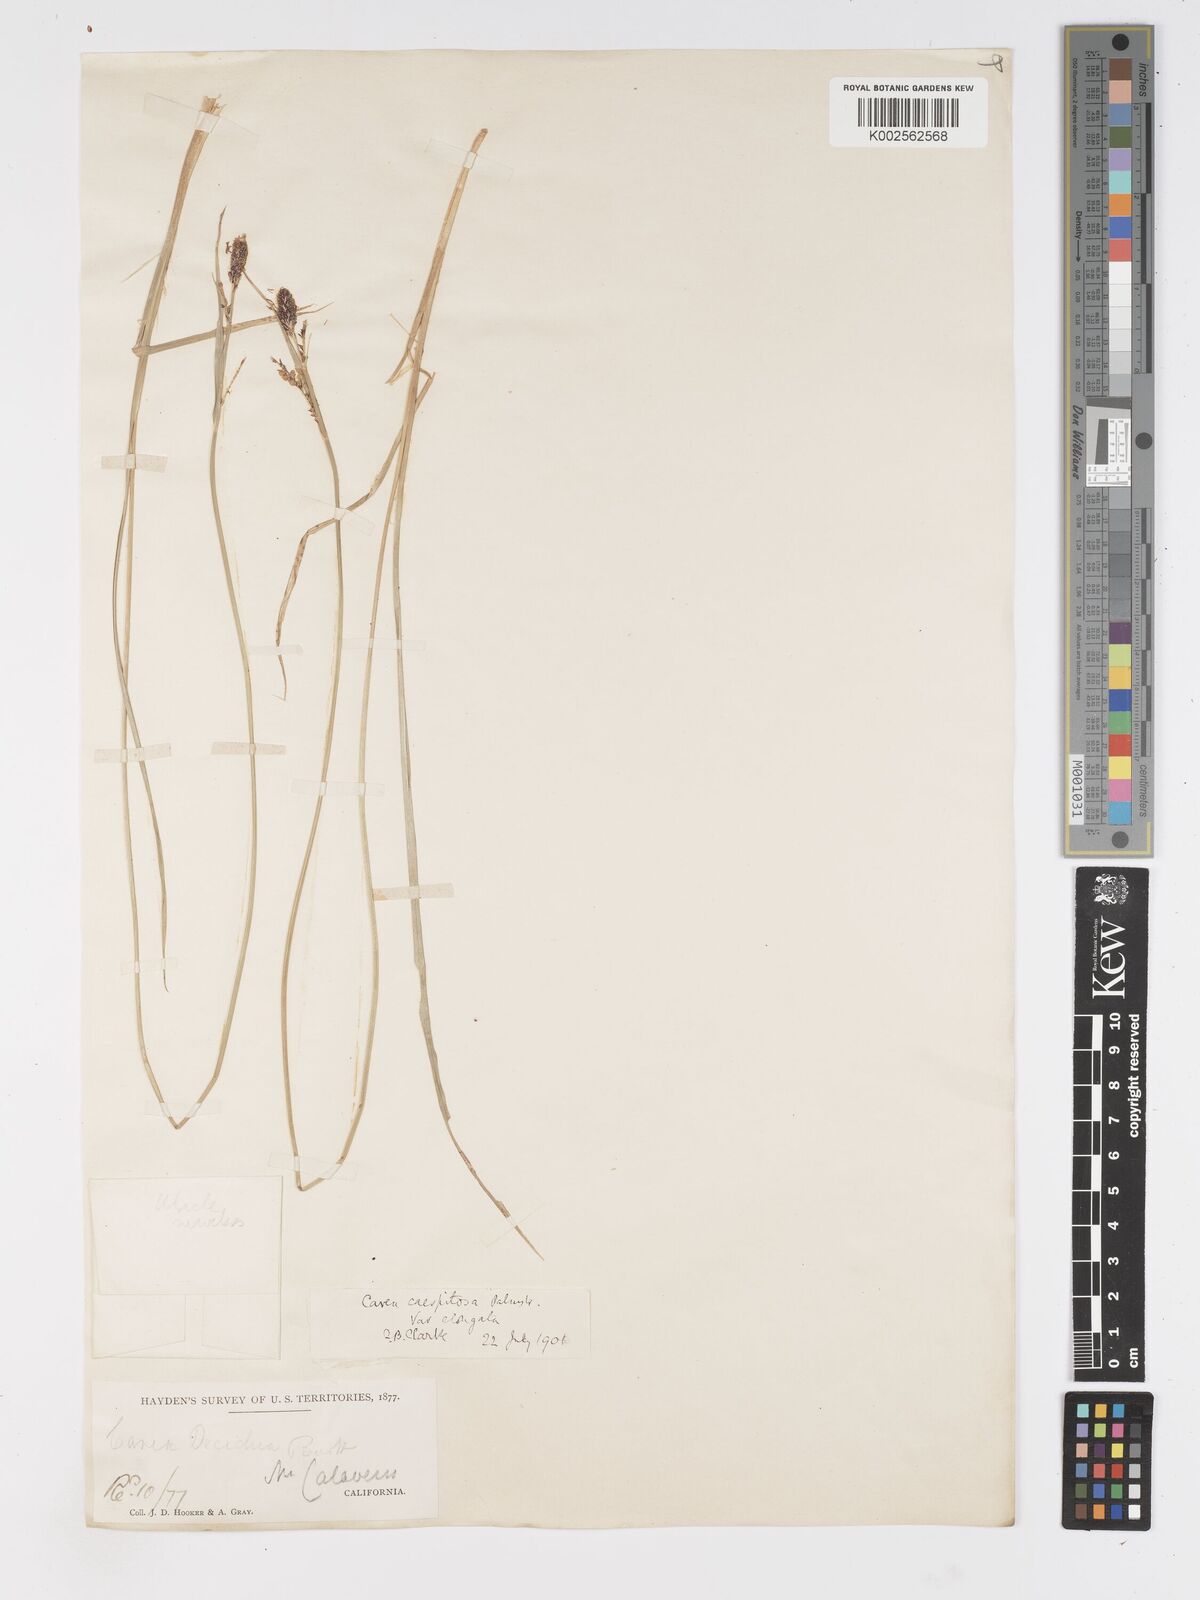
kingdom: Plantae
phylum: Tracheophyta
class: Liliopsida
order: Poales
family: Cyperaceae
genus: Carex
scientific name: Carex bigelowii
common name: Stiff sedge
